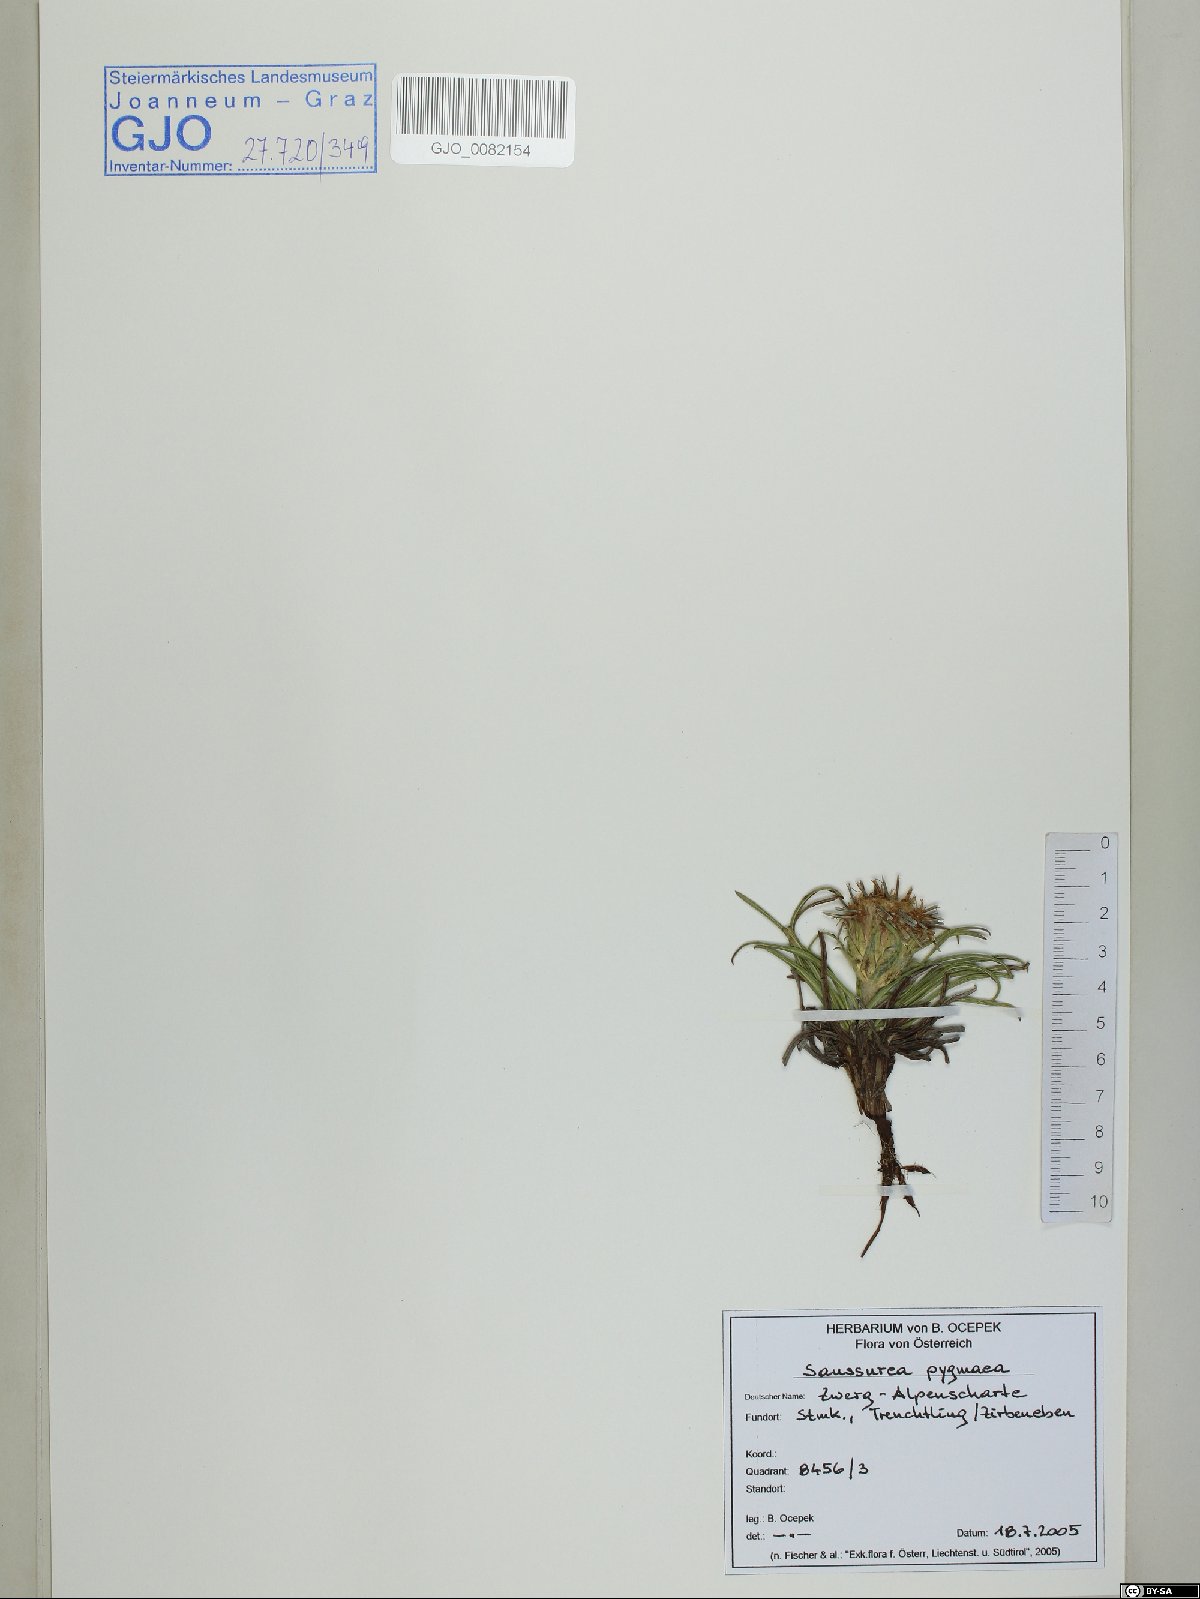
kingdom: Plantae
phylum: Tracheophyta
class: Magnoliopsida
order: Asterales
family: Asteraceae
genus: Saussurea
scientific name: Saussurea pygmaea
